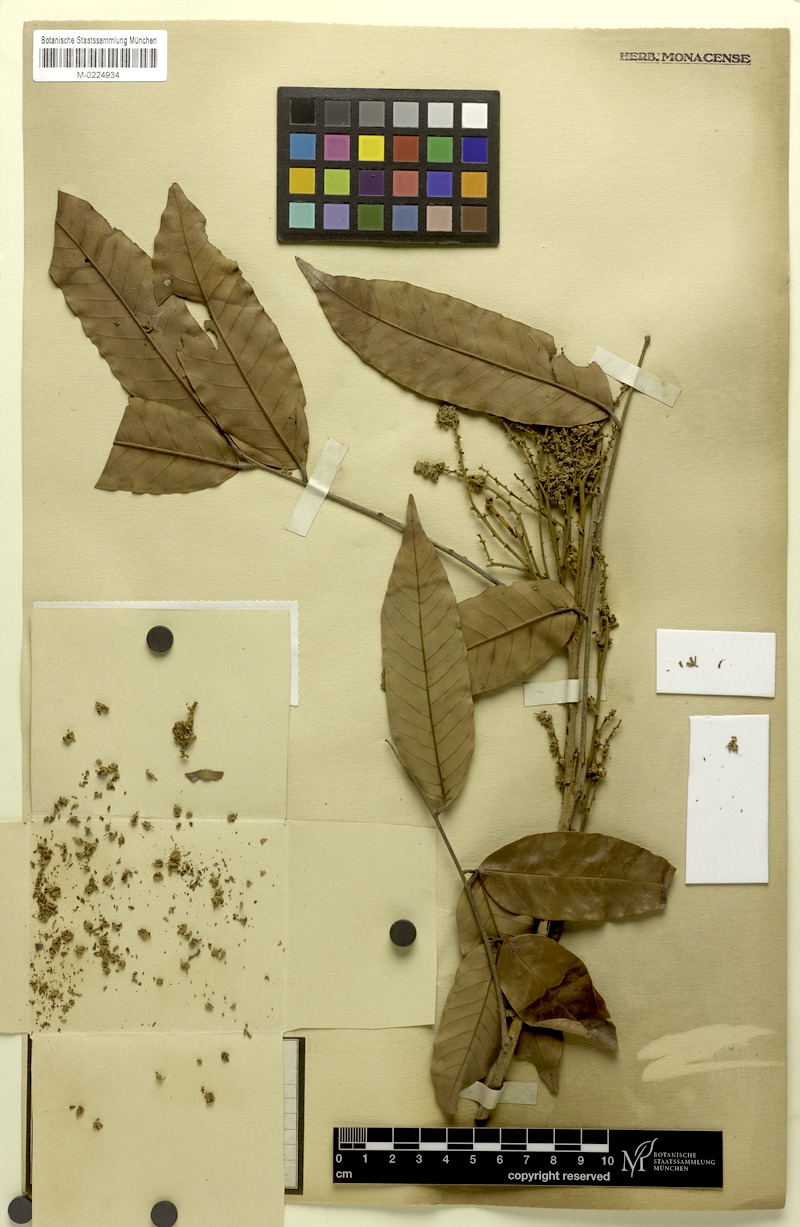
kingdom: Plantae
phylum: Tracheophyta
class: Magnoliopsida
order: Sapindales
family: Sapindaceae
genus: Dimocarpus
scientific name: Dimocarpus longan
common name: Longan
